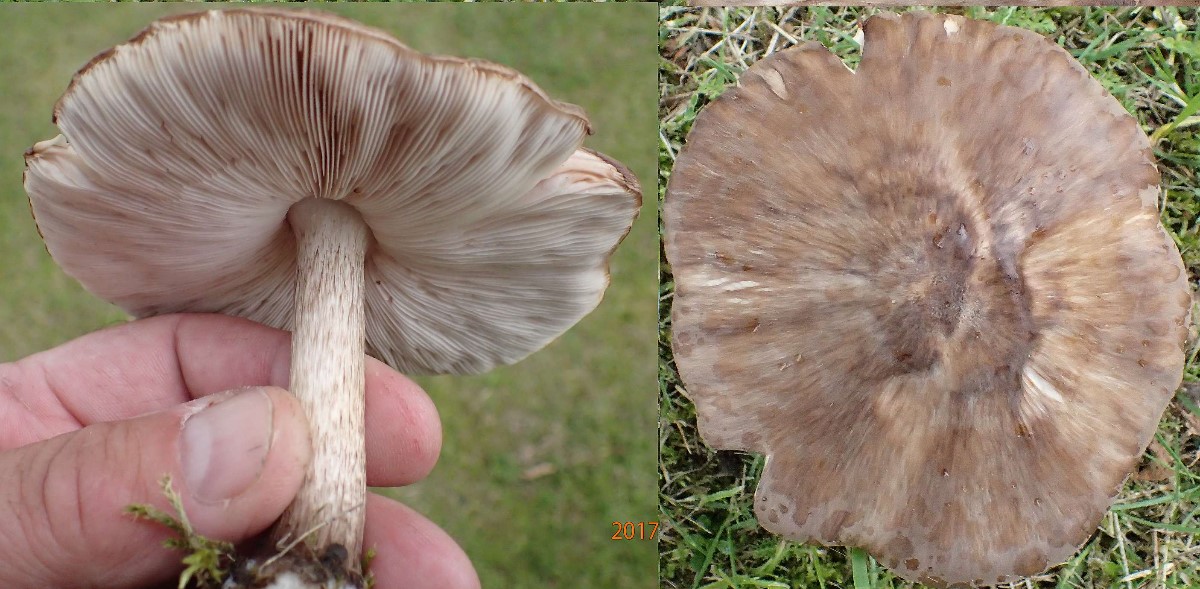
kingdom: Fungi
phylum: Basidiomycota
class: Agaricomycetes
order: Agaricales
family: Pluteaceae
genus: Pluteus
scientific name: Pluteus cervinus
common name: sodfarvet skærmhat
